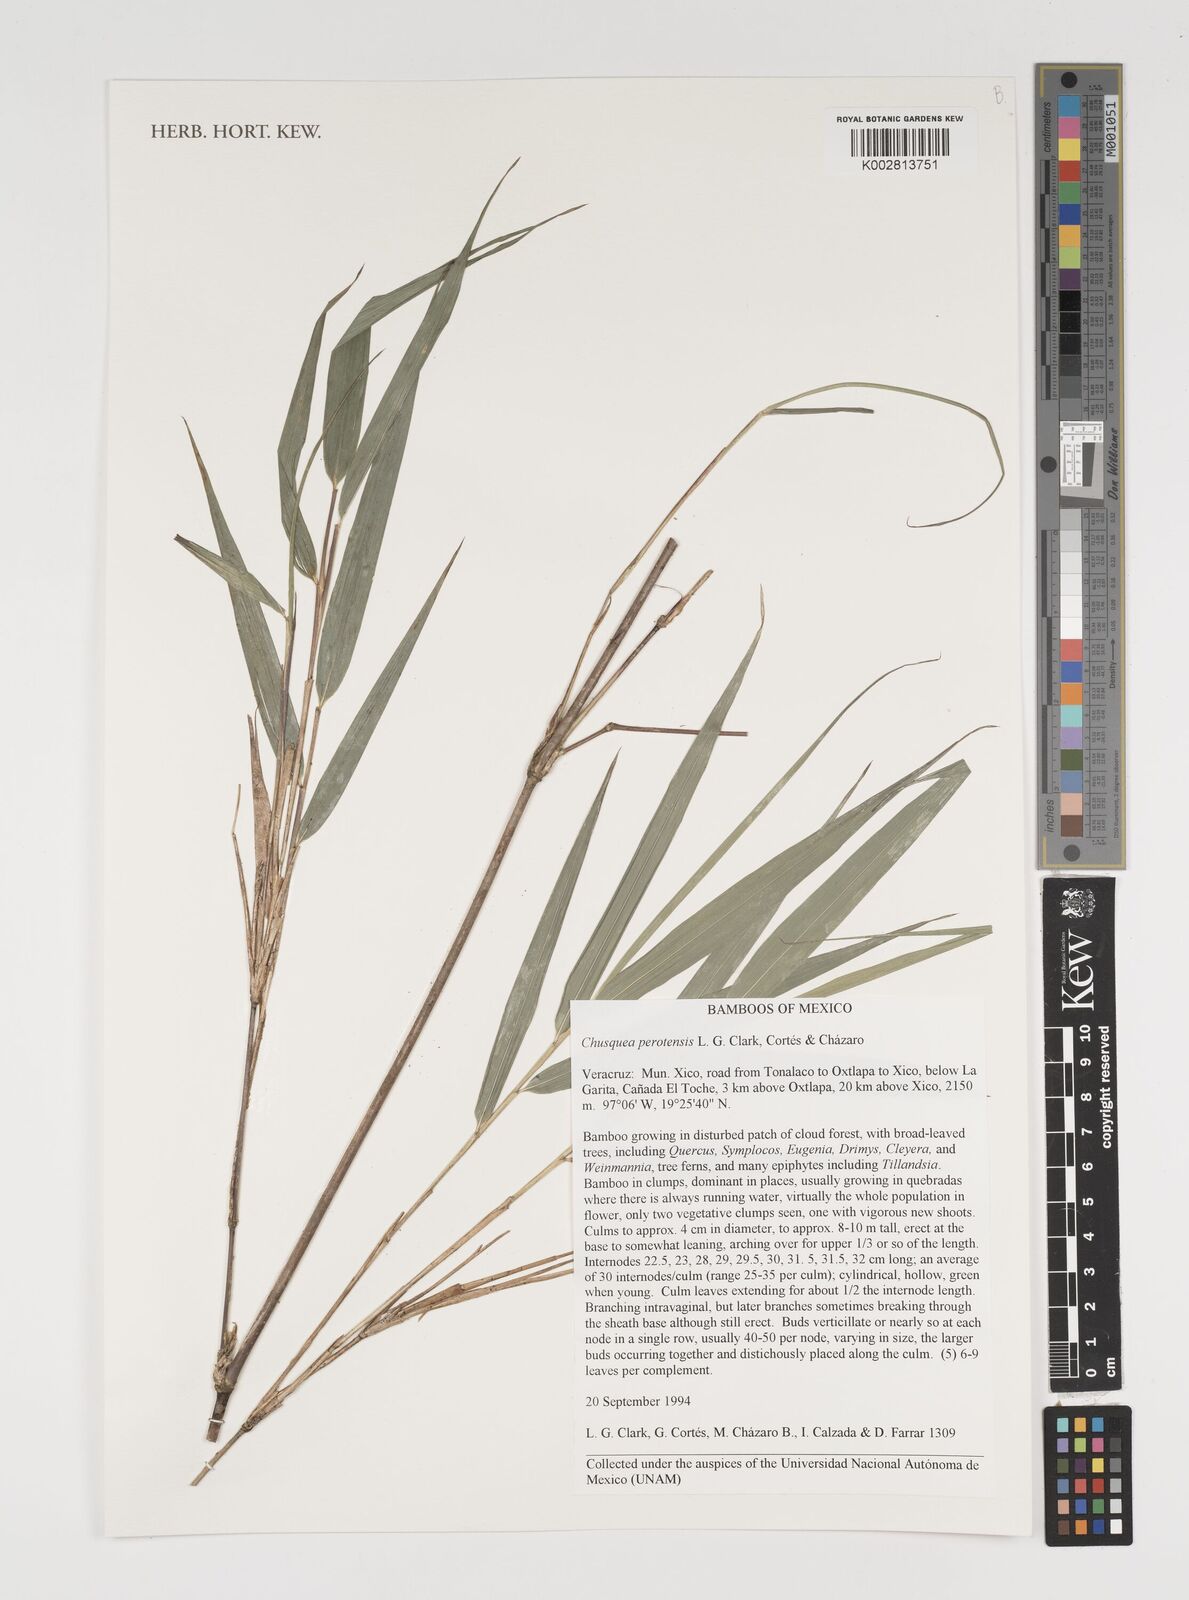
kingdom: Plantae
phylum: Tracheophyta
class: Liliopsida
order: Poales
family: Poaceae
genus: Chusquea
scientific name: Chusquea perotensis
